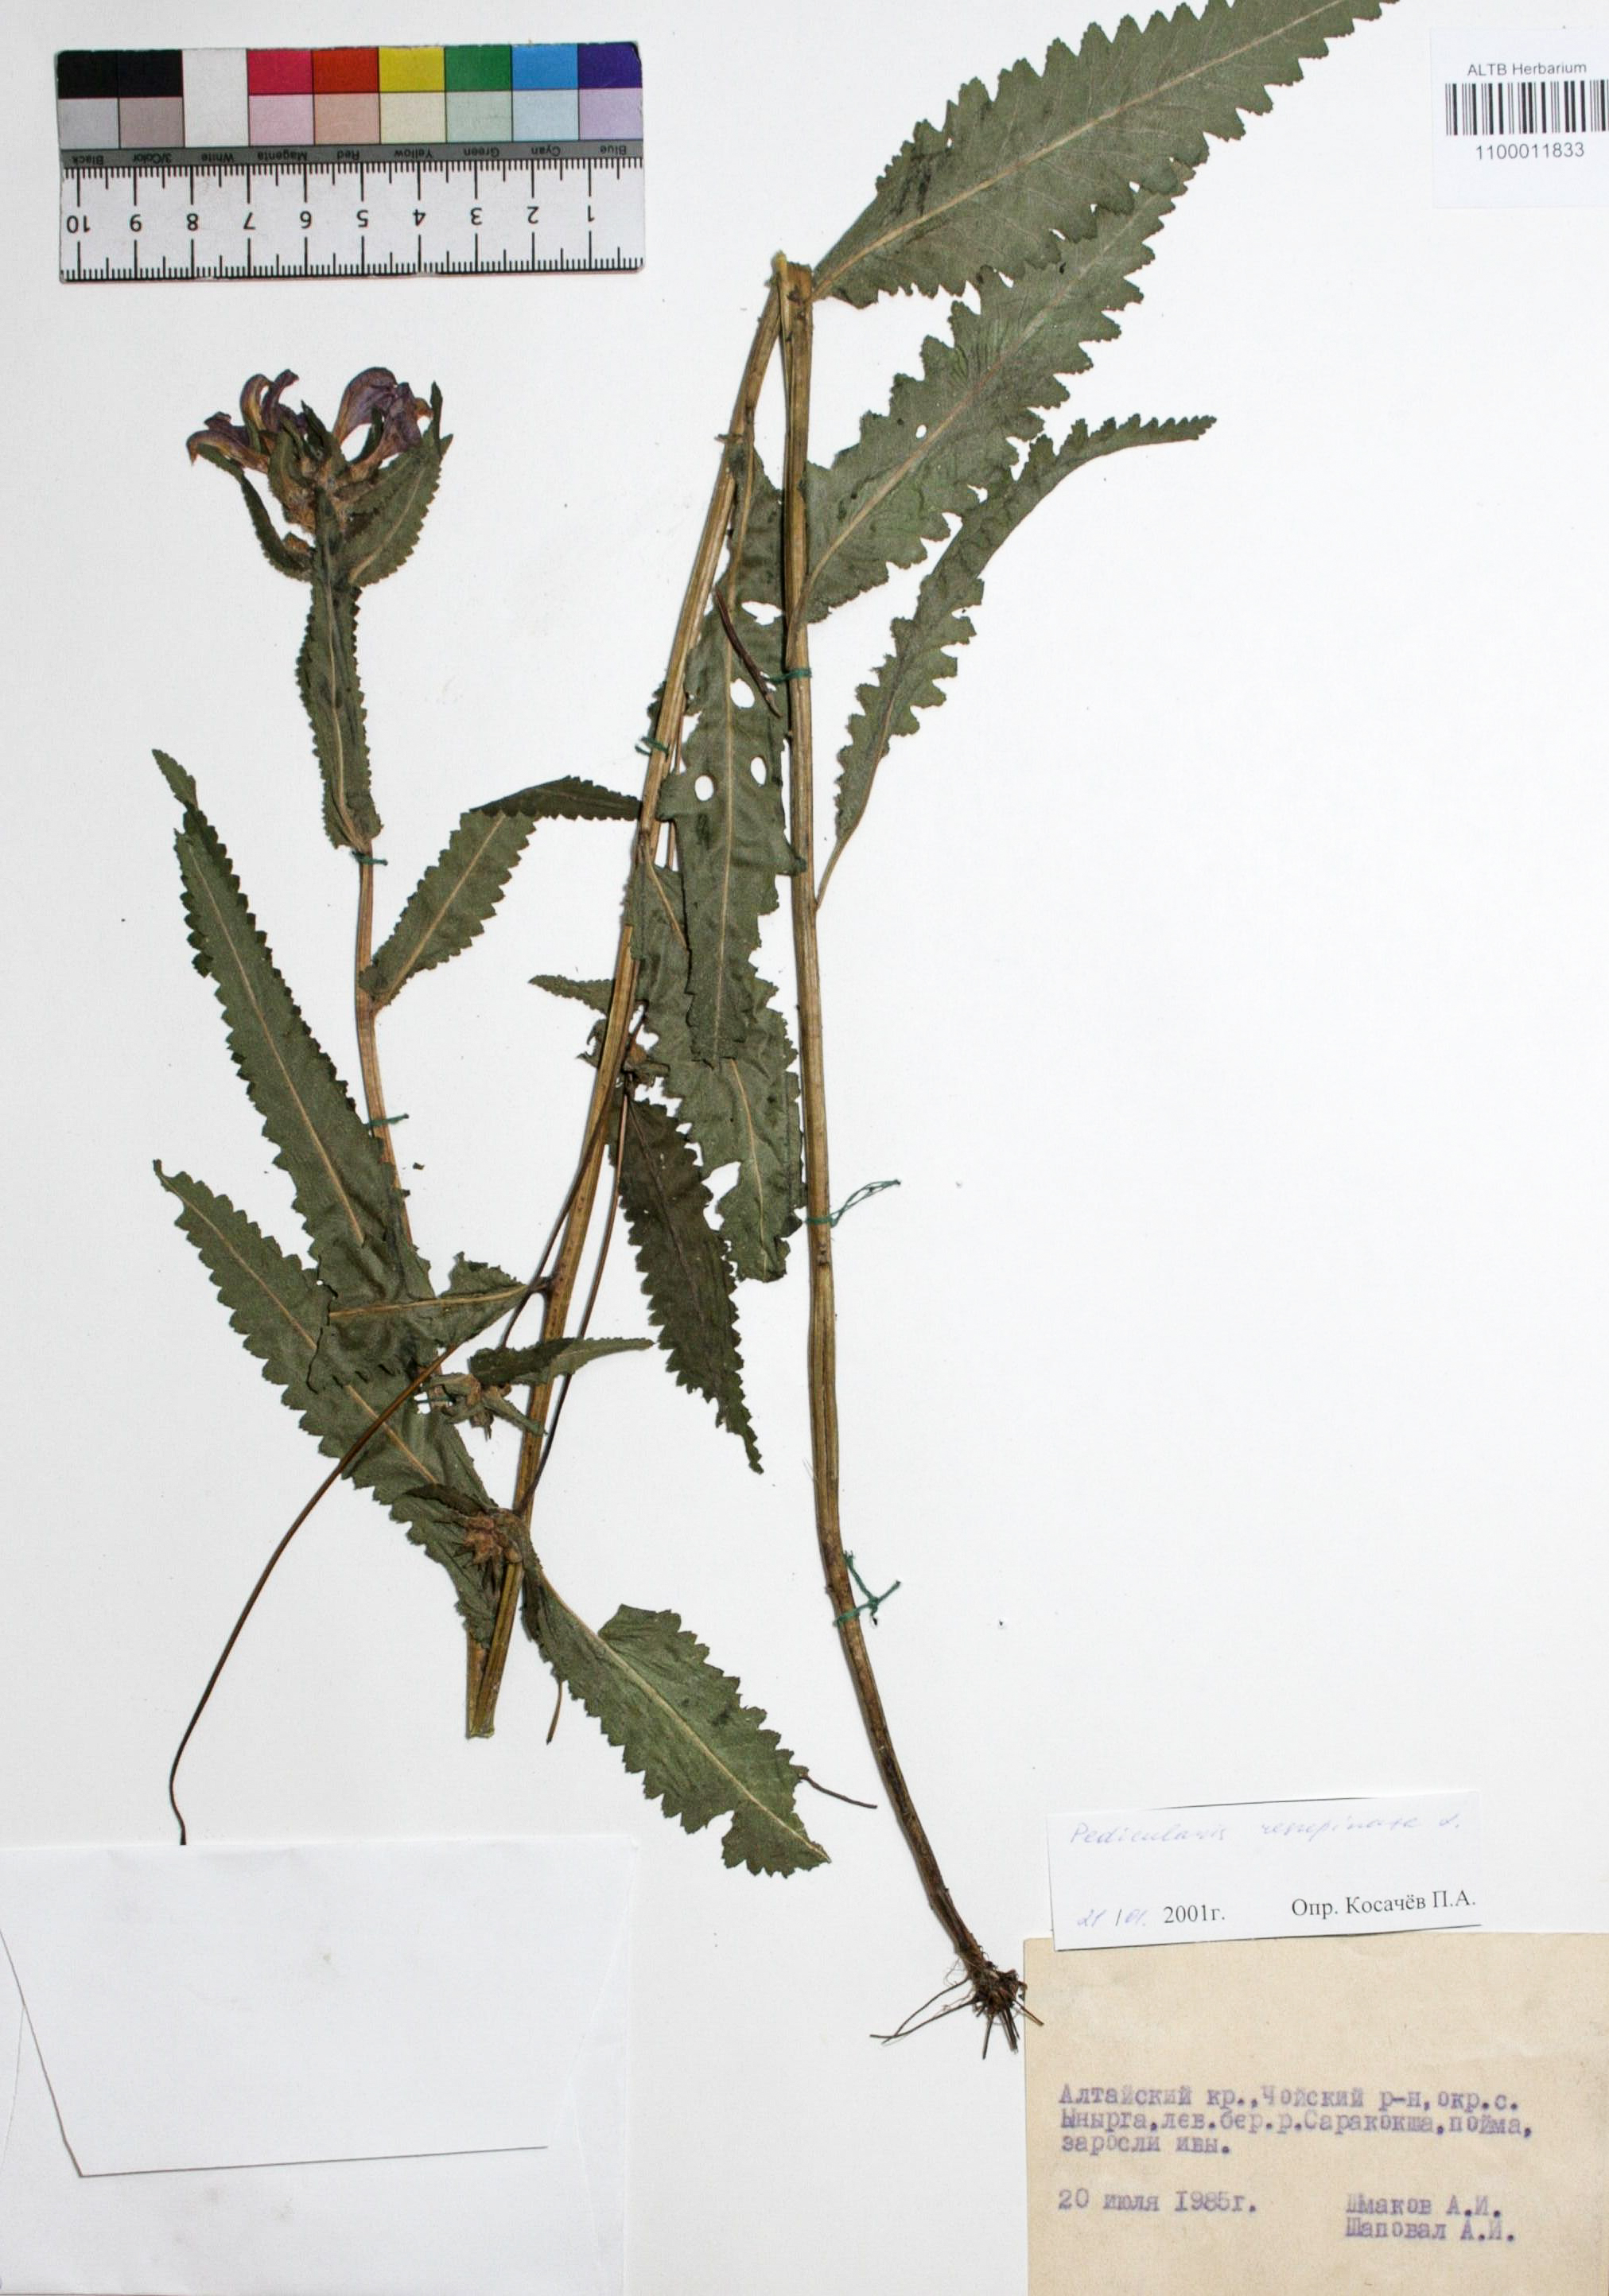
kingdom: Plantae
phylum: Tracheophyta
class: Magnoliopsida
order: Lamiales
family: Orobanchaceae
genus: Pedicularis
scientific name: Pedicularis resupinata
